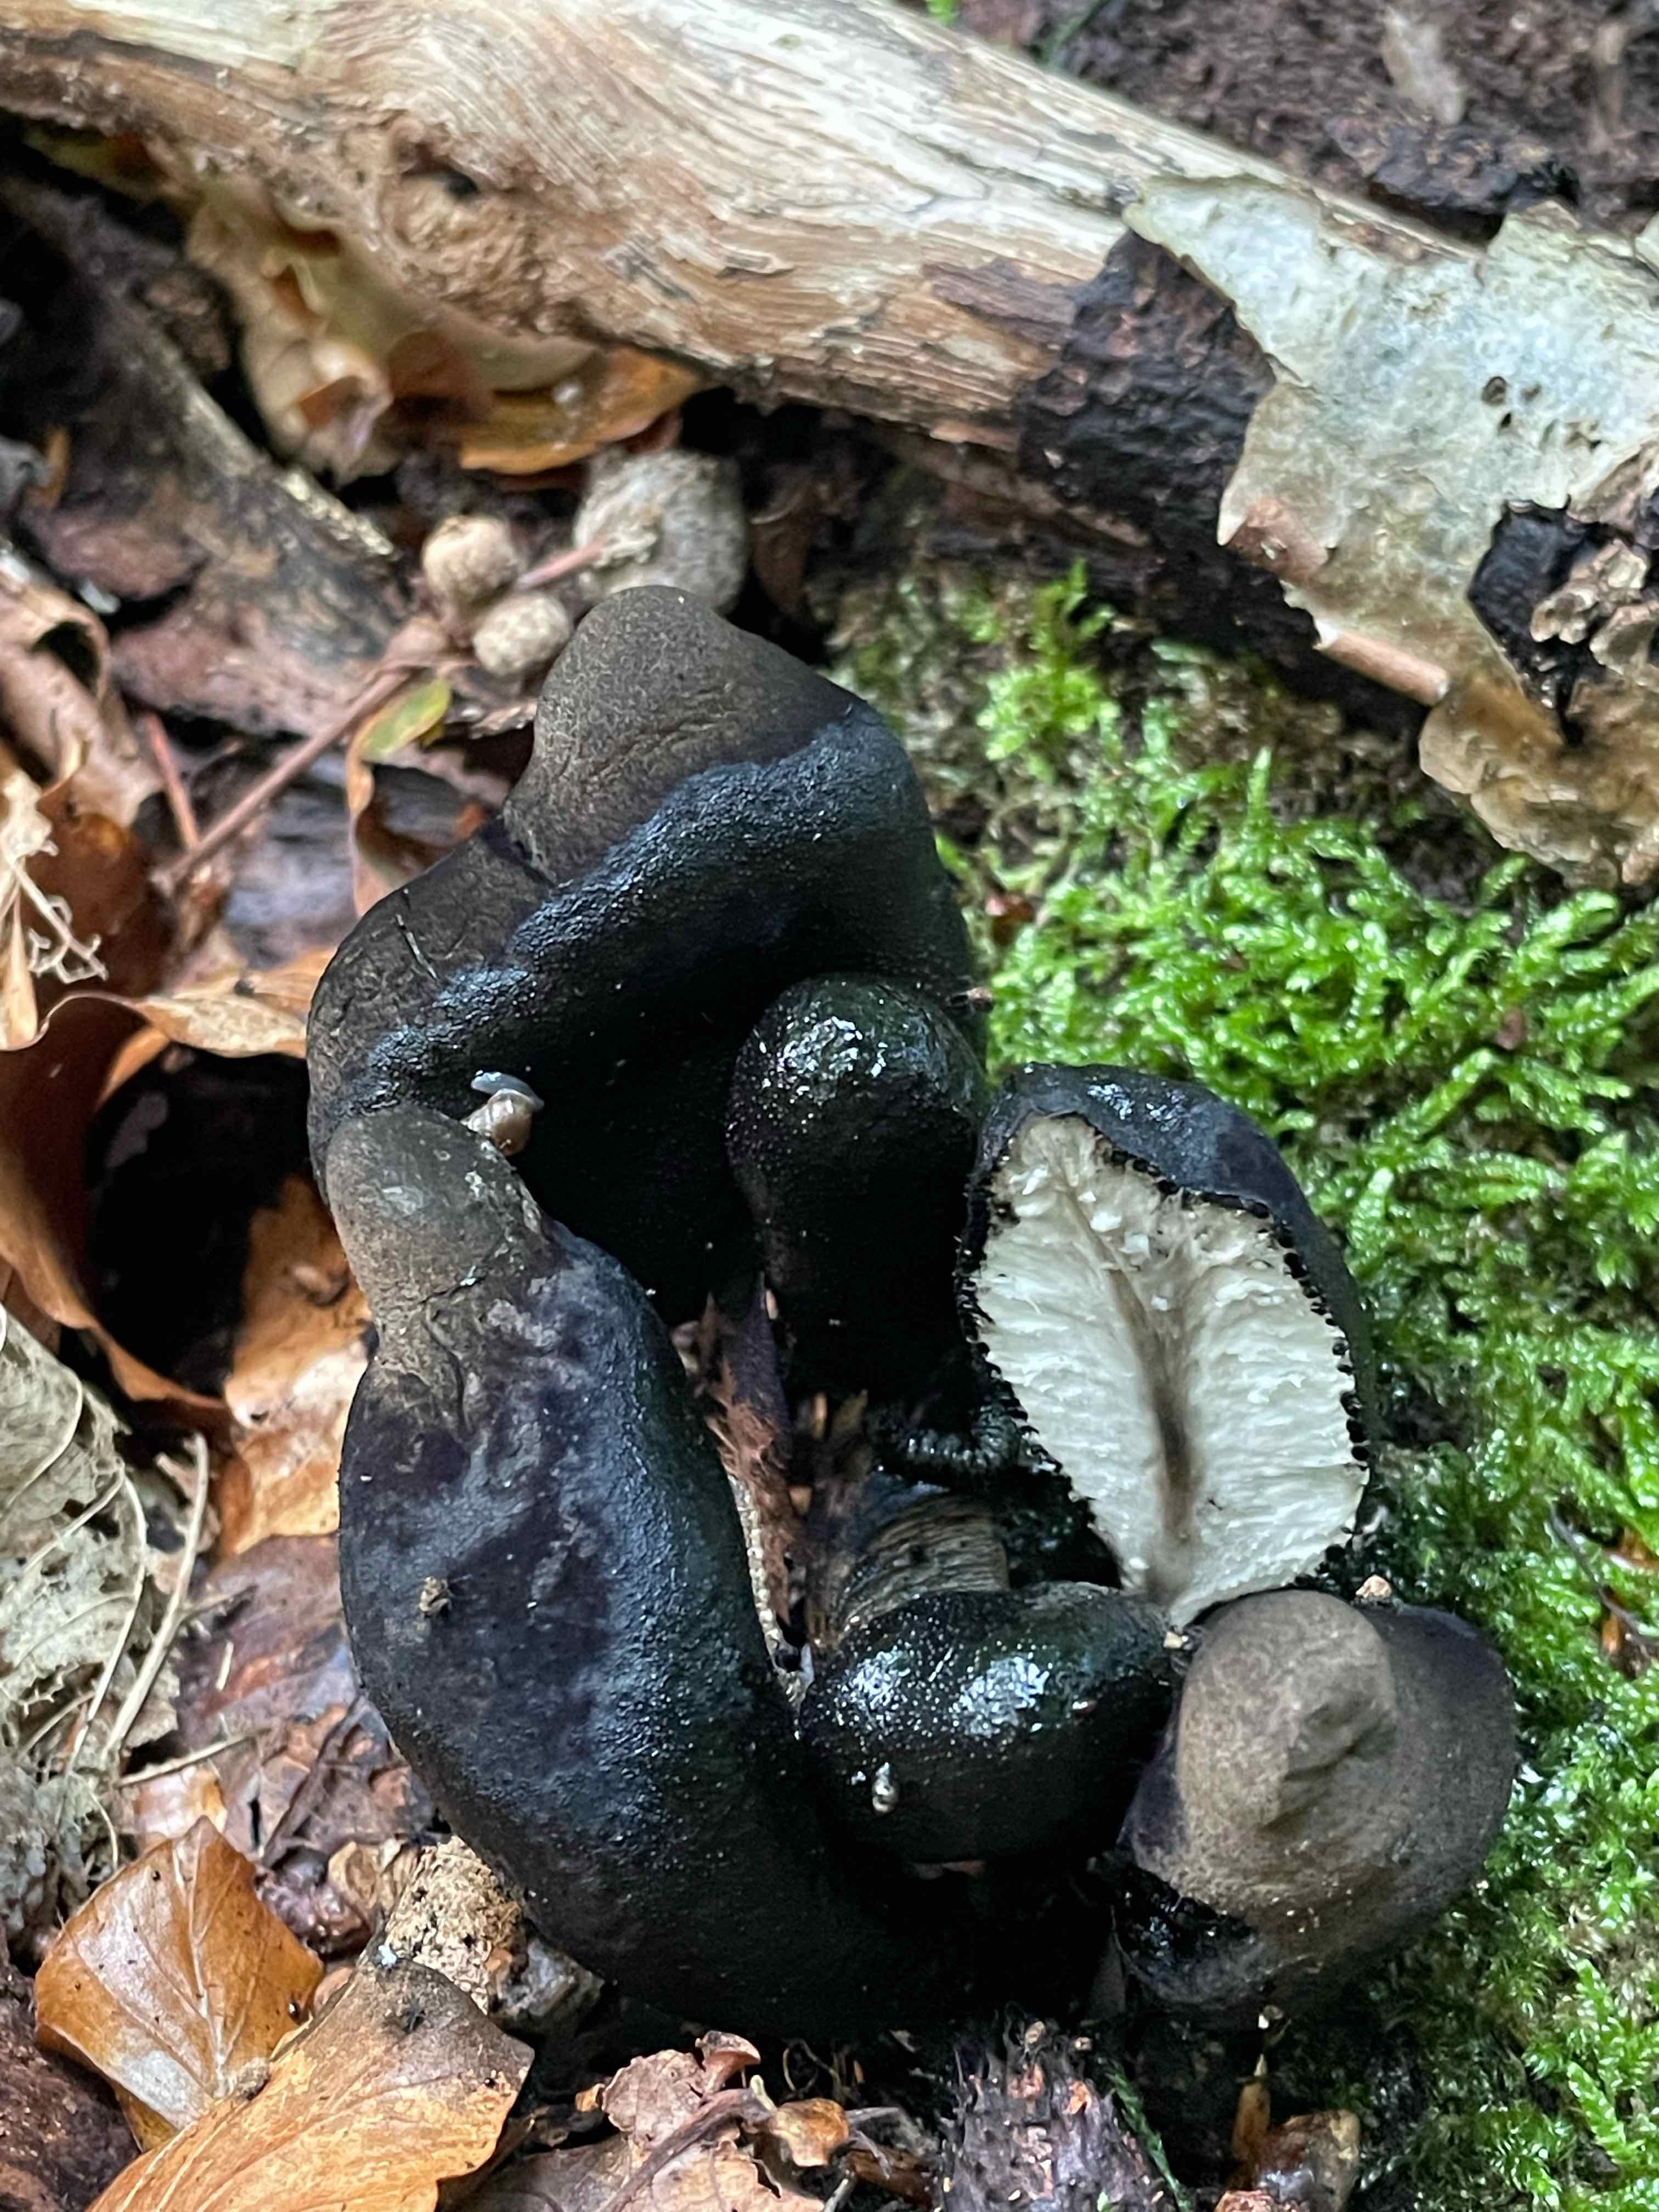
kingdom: Fungi
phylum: Ascomycota
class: Sordariomycetes
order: Xylariales
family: Xylariaceae
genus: Xylaria
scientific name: Xylaria polymorpha
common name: kølle-stødsvamp
